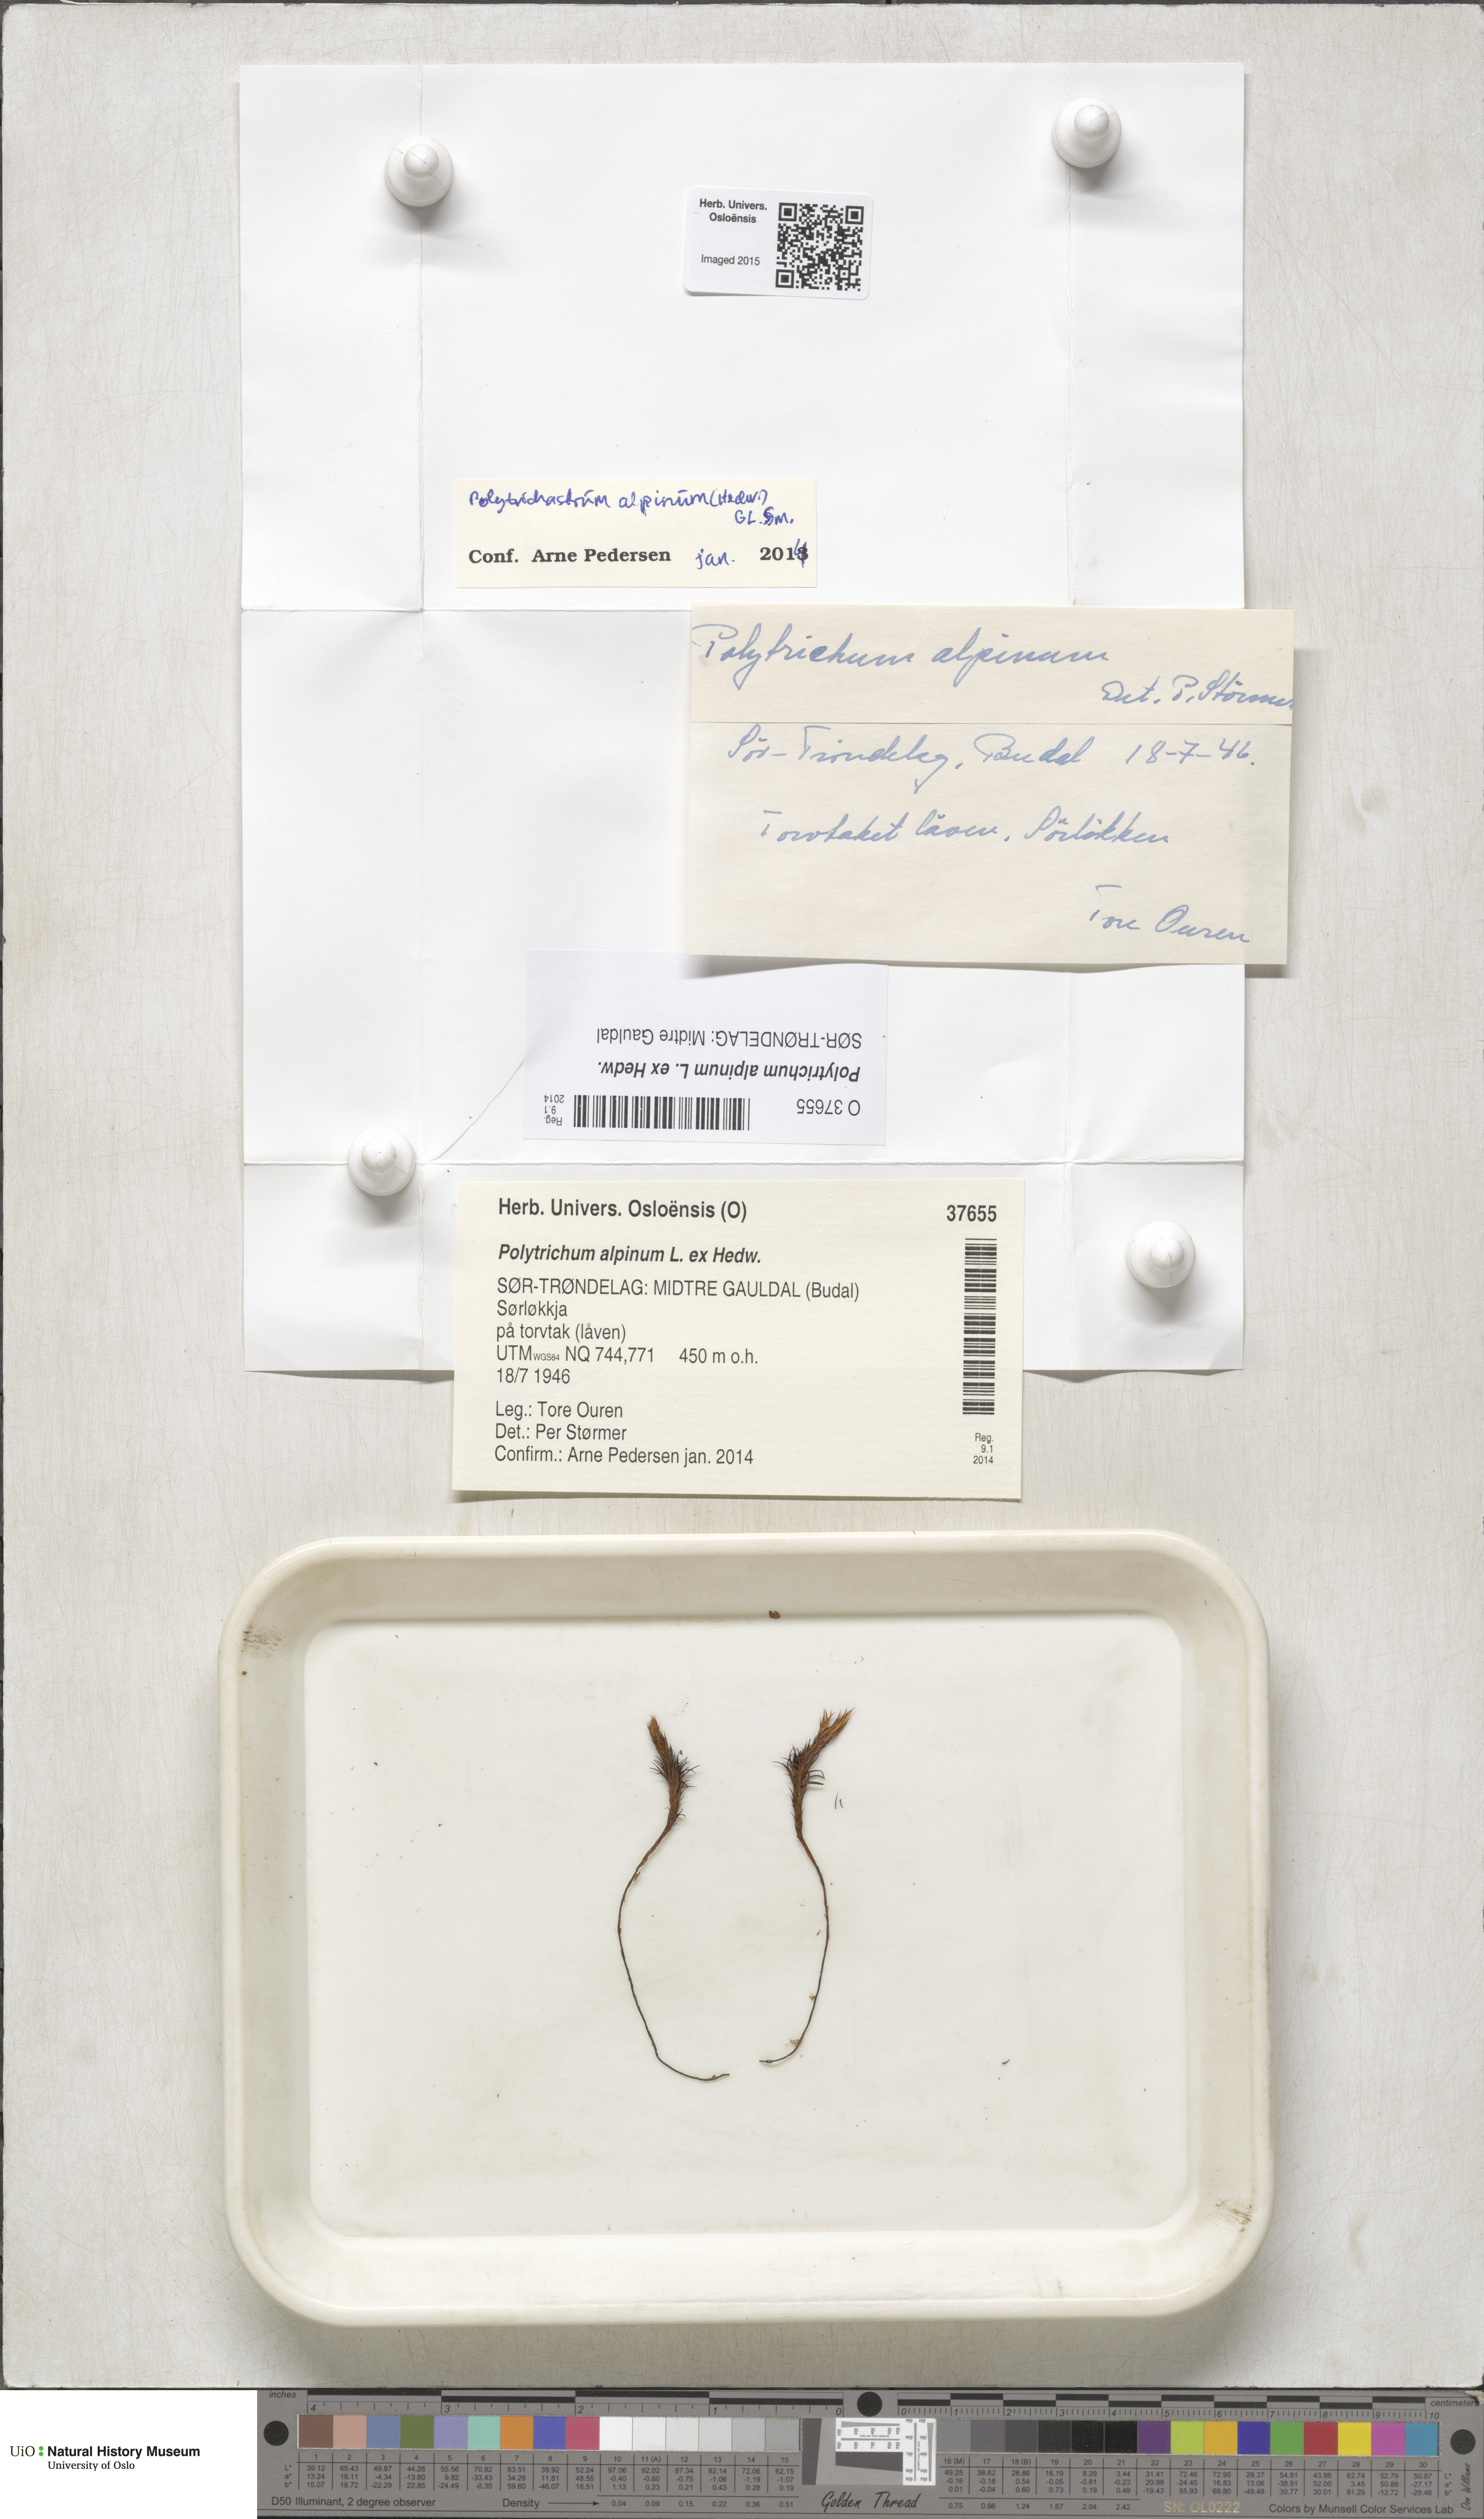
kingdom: Plantae
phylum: Bryophyta
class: Polytrichopsida
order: Polytrichales
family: Polytrichaceae
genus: Polytrichastrum
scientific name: Polytrichastrum alpinum
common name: Alpine haircap
